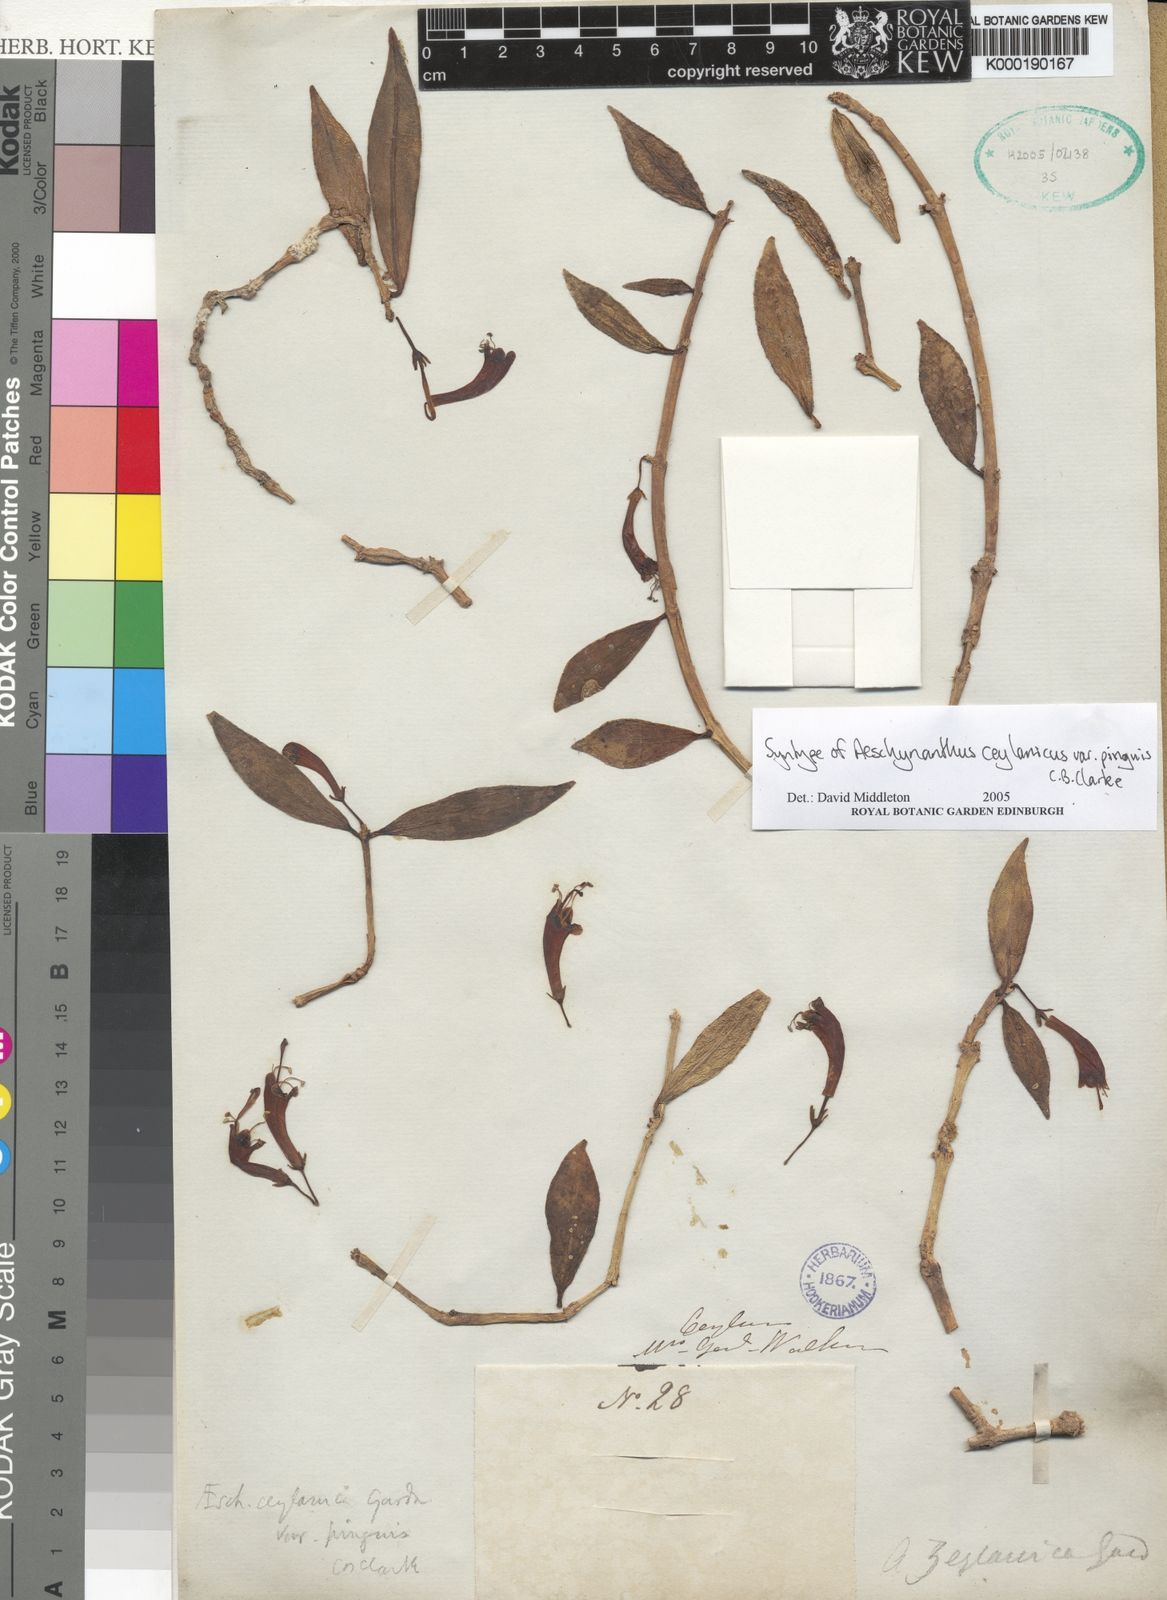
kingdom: Plantae
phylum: Tracheophyta
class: Magnoliopsida
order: Lamiales
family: Gesneriaceae
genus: Aeschynanthus
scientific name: Aeschynanthus ceylanicus
